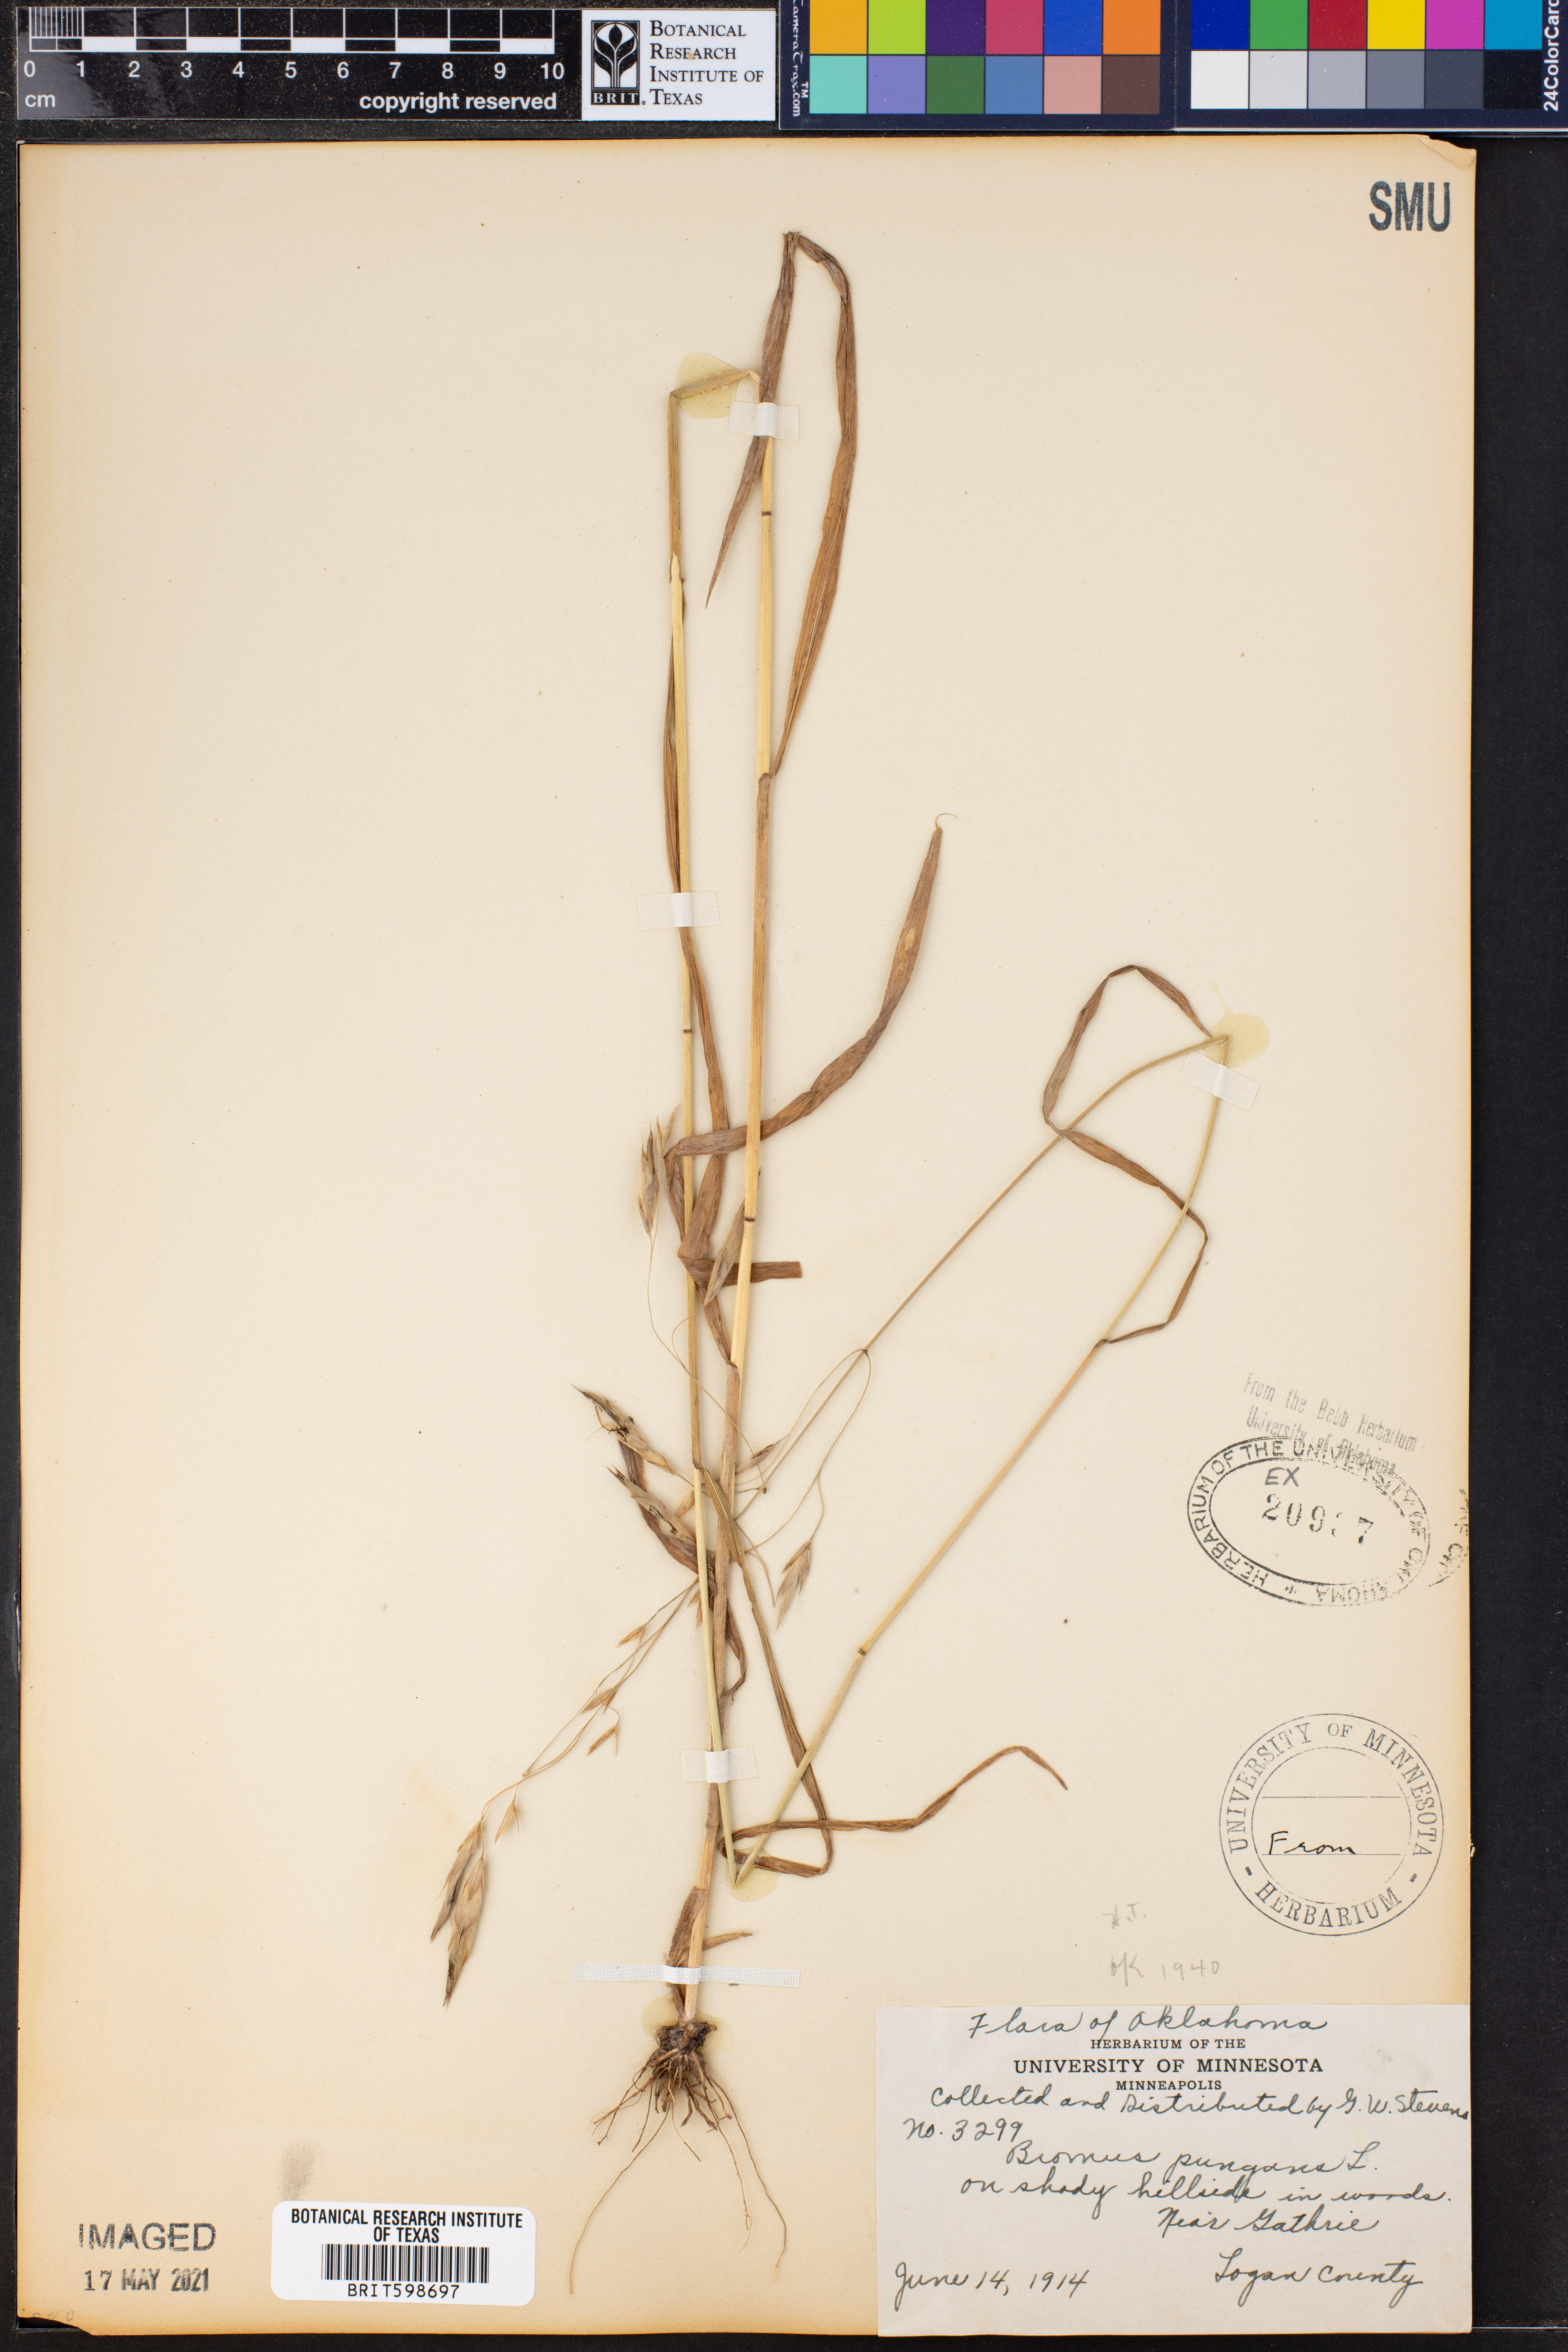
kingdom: Plantae
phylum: Tracheophyta
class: Liliopsida
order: Poales
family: Poaceae
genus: Triticum
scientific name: Triticum Bromus purgans
